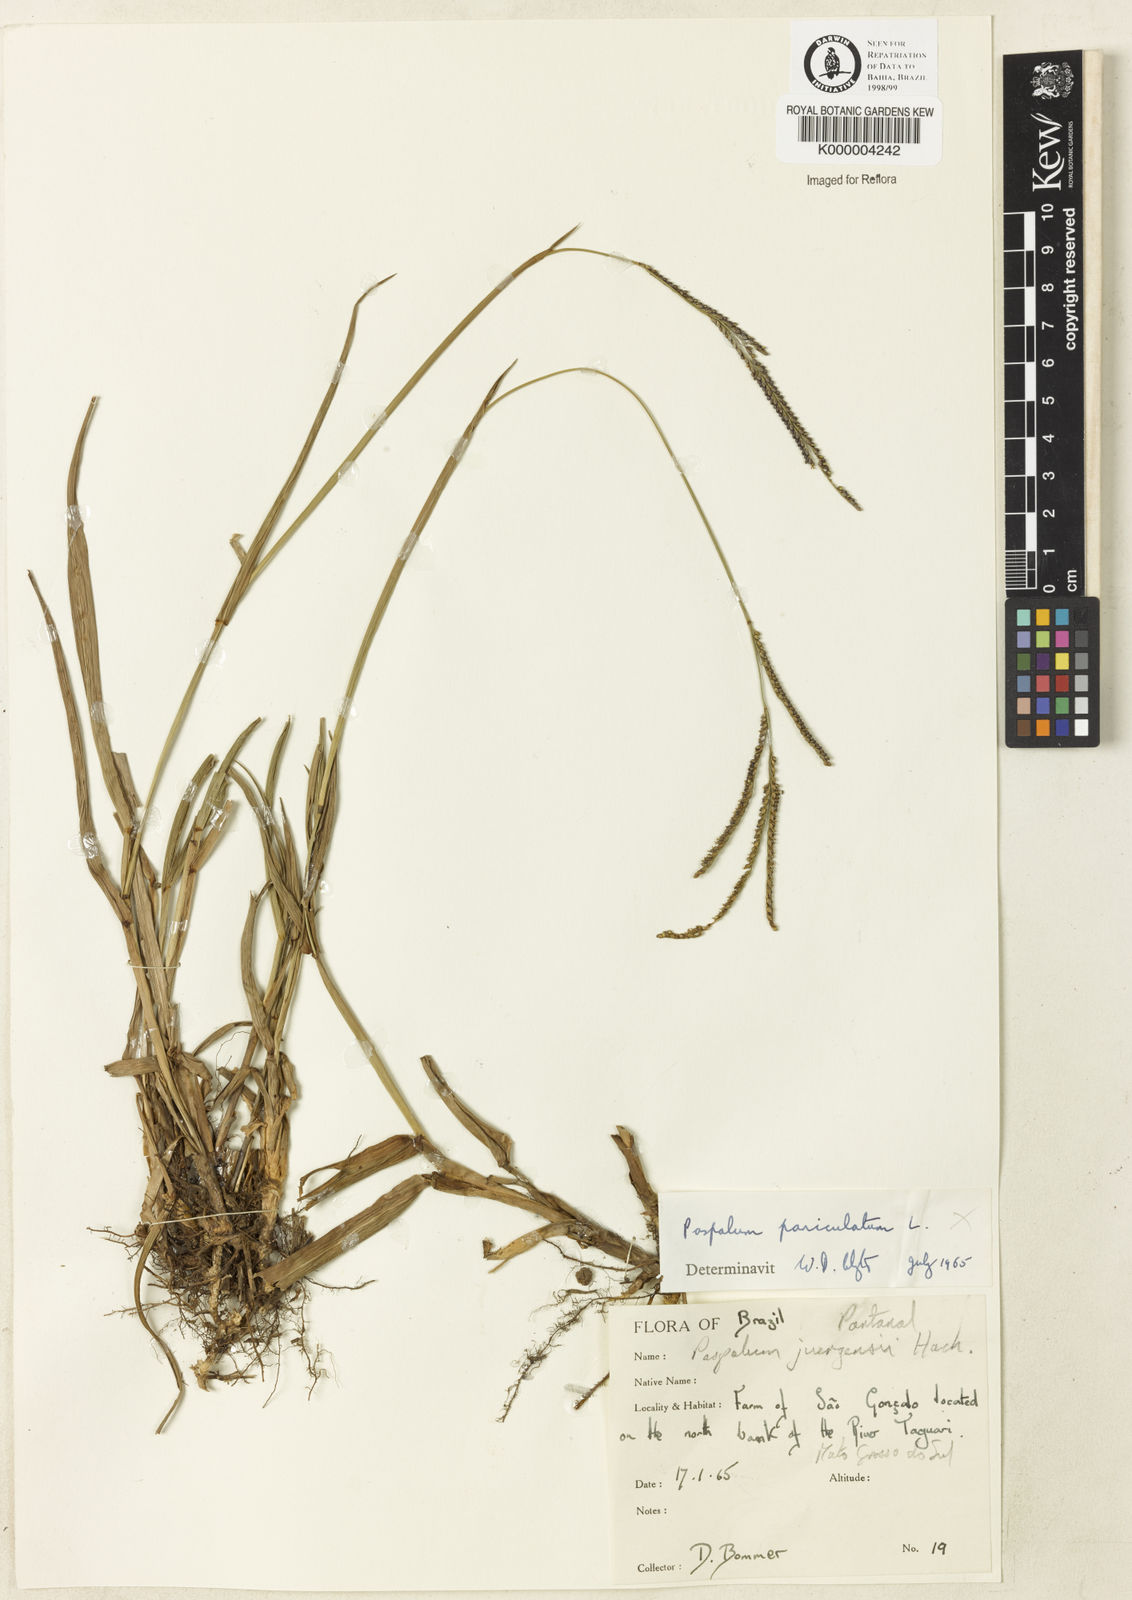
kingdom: Plantae
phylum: Tracheophyta
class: Liliopsida
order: Poales
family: Poaceae
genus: Paspalum
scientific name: Paspalum juergensii
